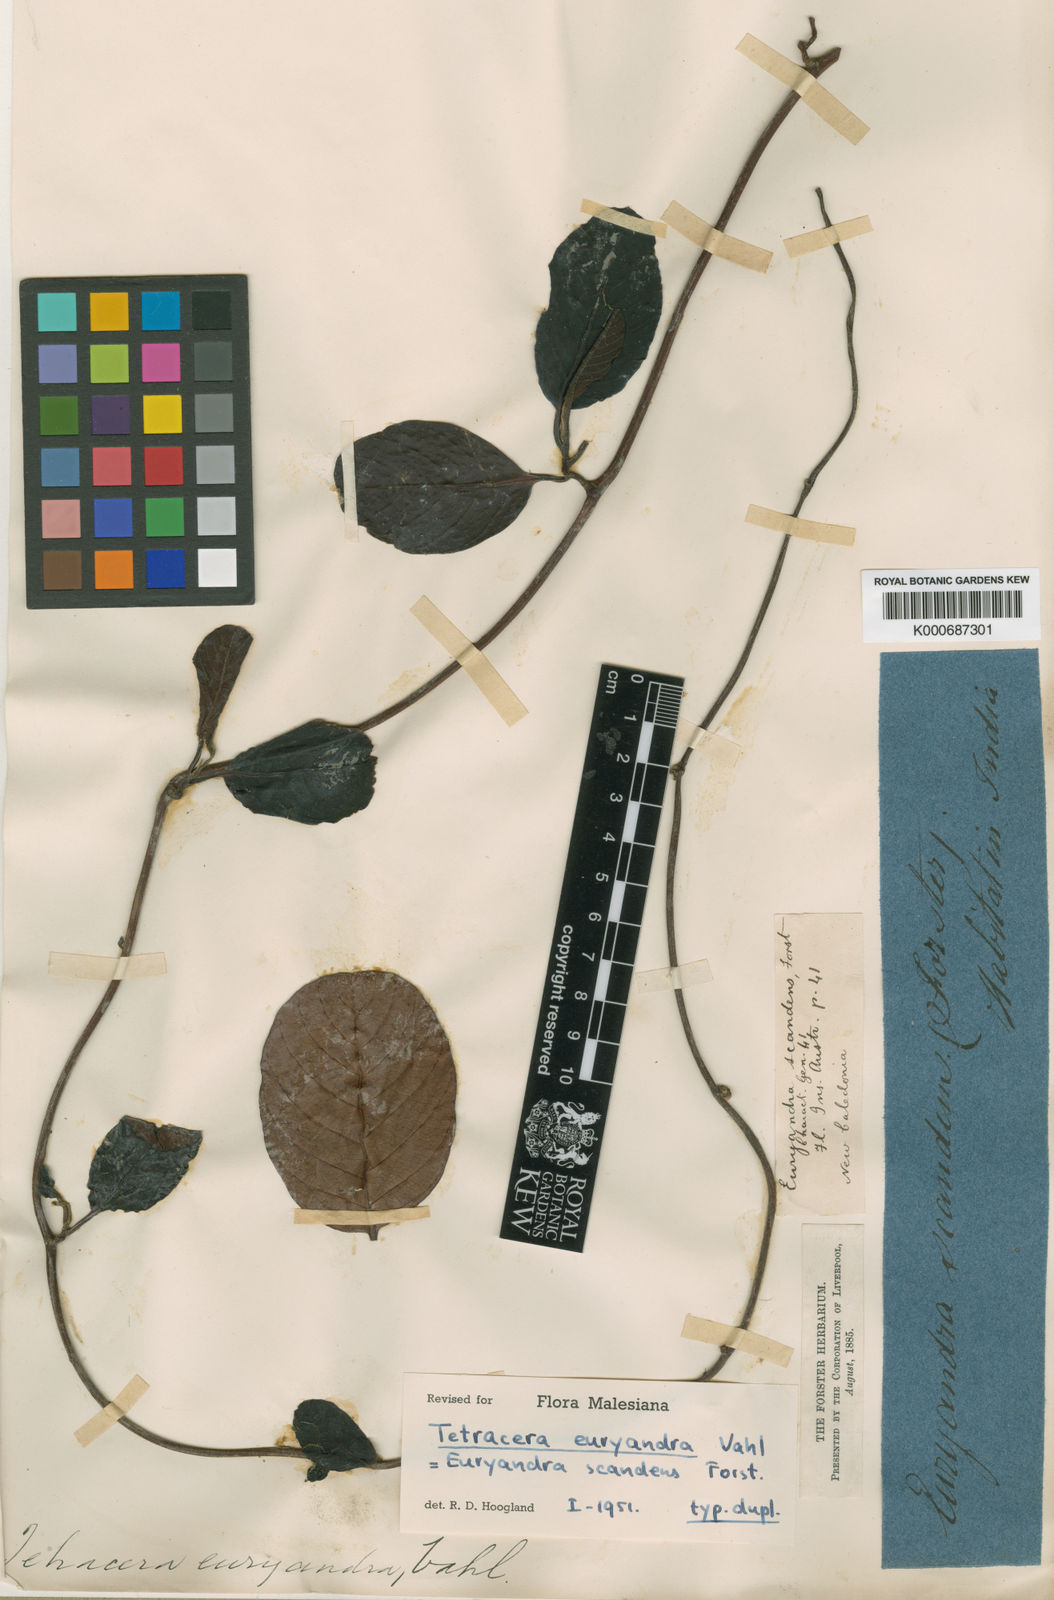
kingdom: Plantae
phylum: Tracheophyta
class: Magnoliopsida
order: Dilleniales
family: Dilleniaceae
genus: Tetracera
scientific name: Tetracera sarmentosa
